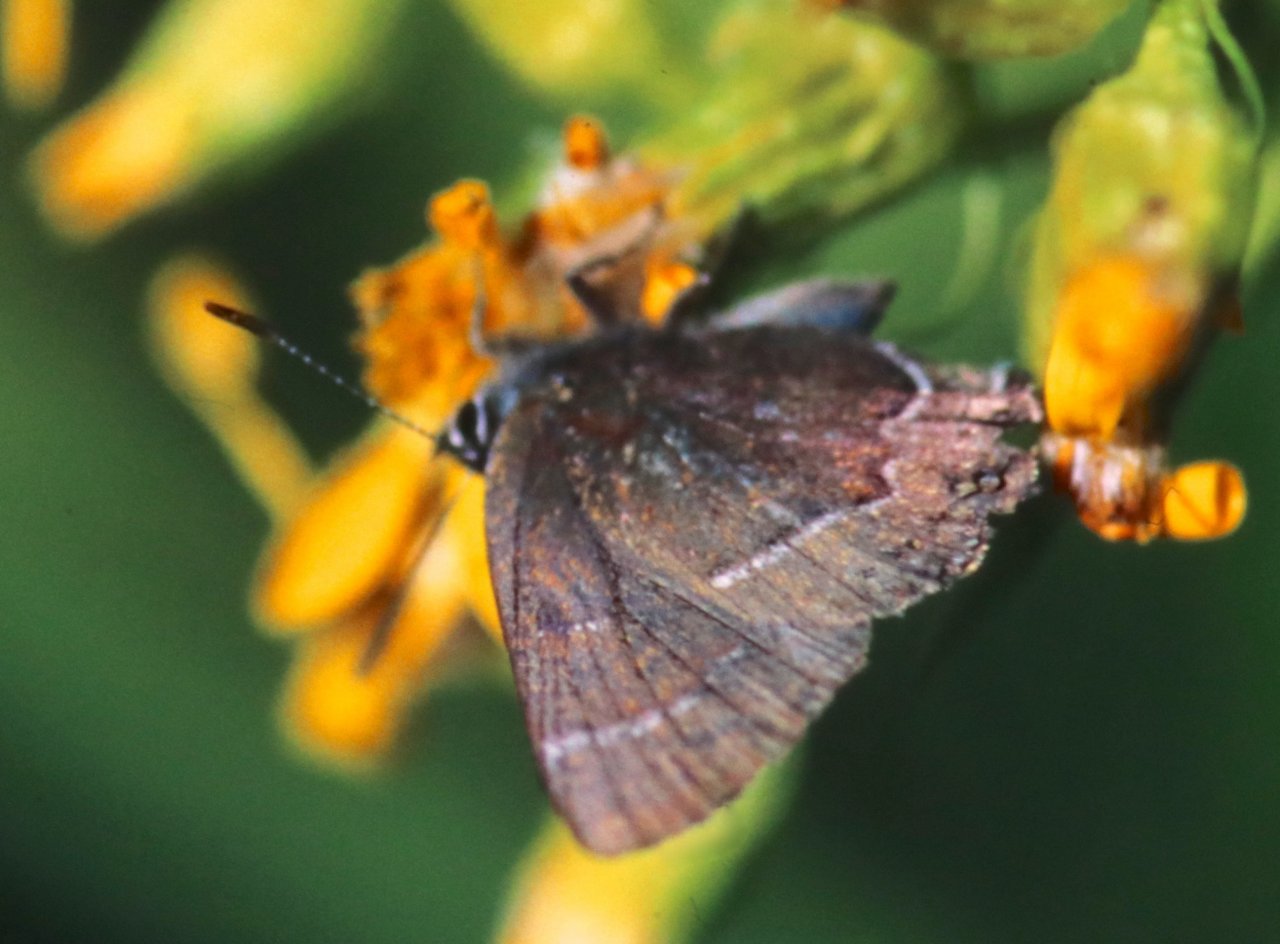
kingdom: Animalia
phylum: Arthropoda
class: Insecta
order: Lepidoptera
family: Lycaenidae
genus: Mitoura
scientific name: Mitoura spinetorum
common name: Thicket Hairstreak
